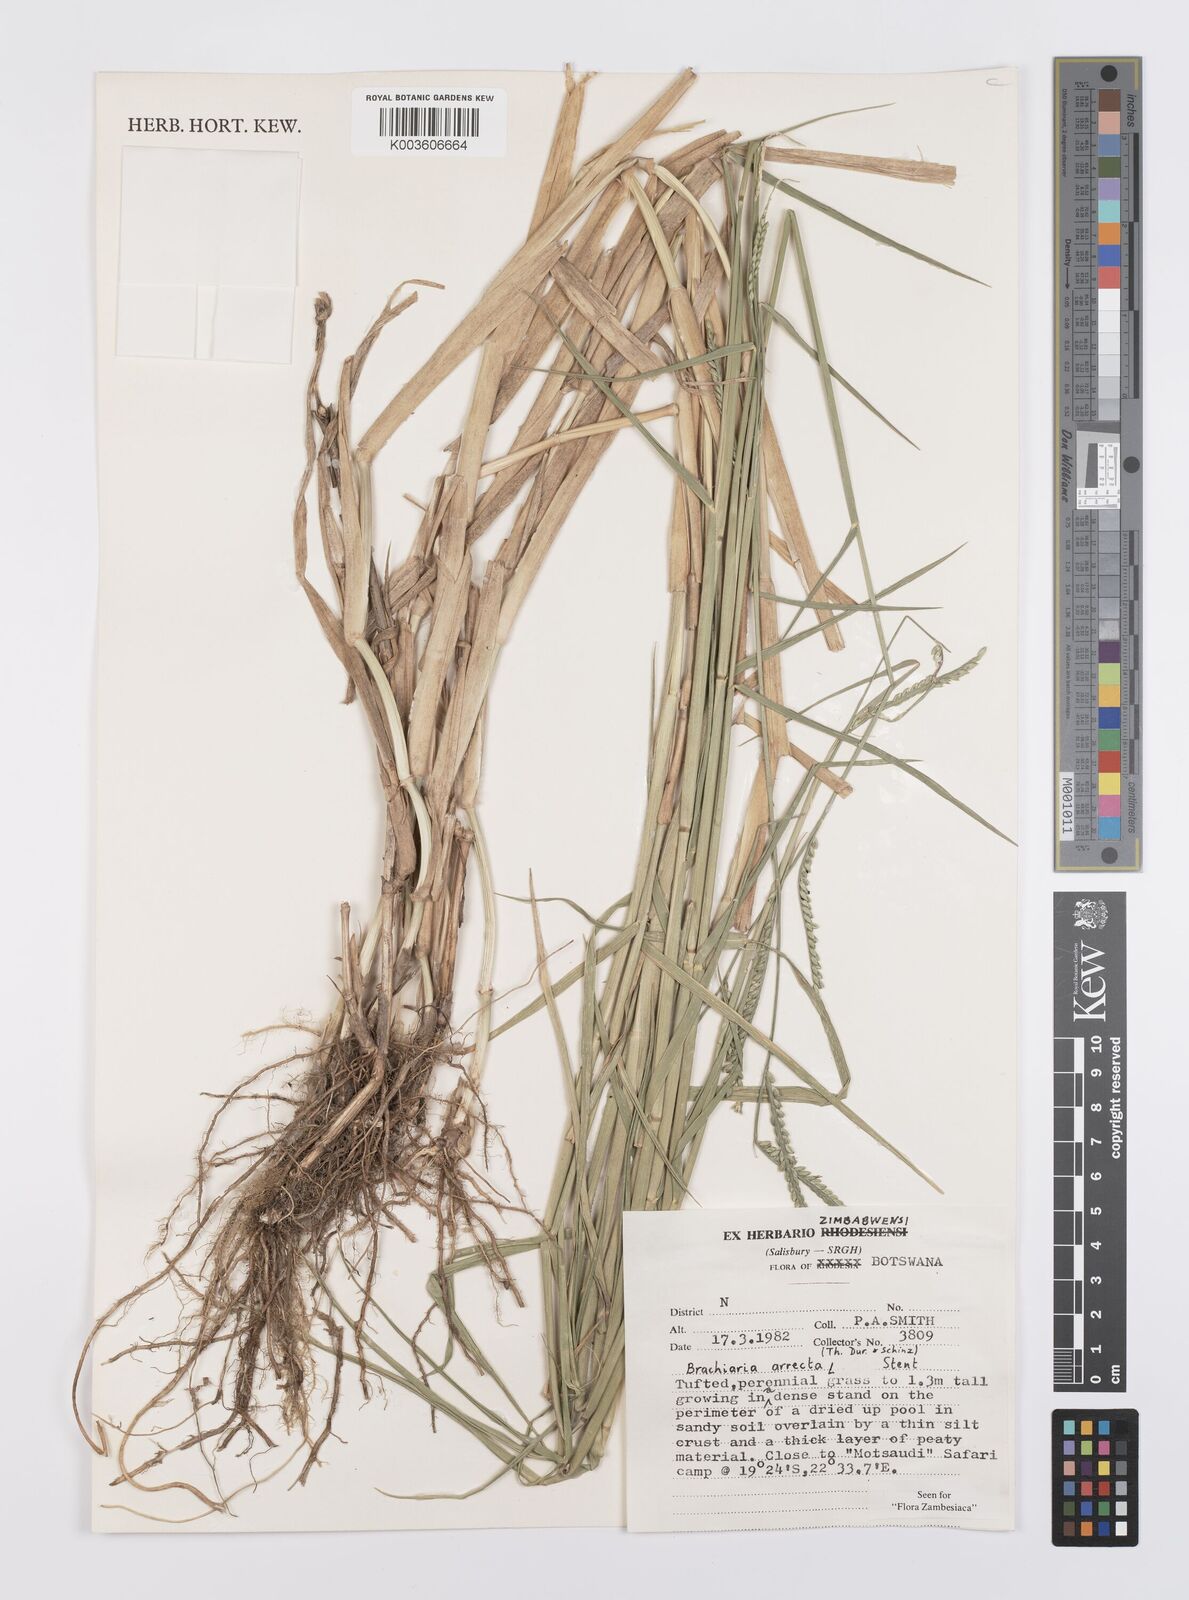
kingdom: Plantae
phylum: Tracheophyta
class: Liliopsida
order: Poales
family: Poaceae
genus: Urochloa
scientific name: Urochloa arrecta
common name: African signalgrass
